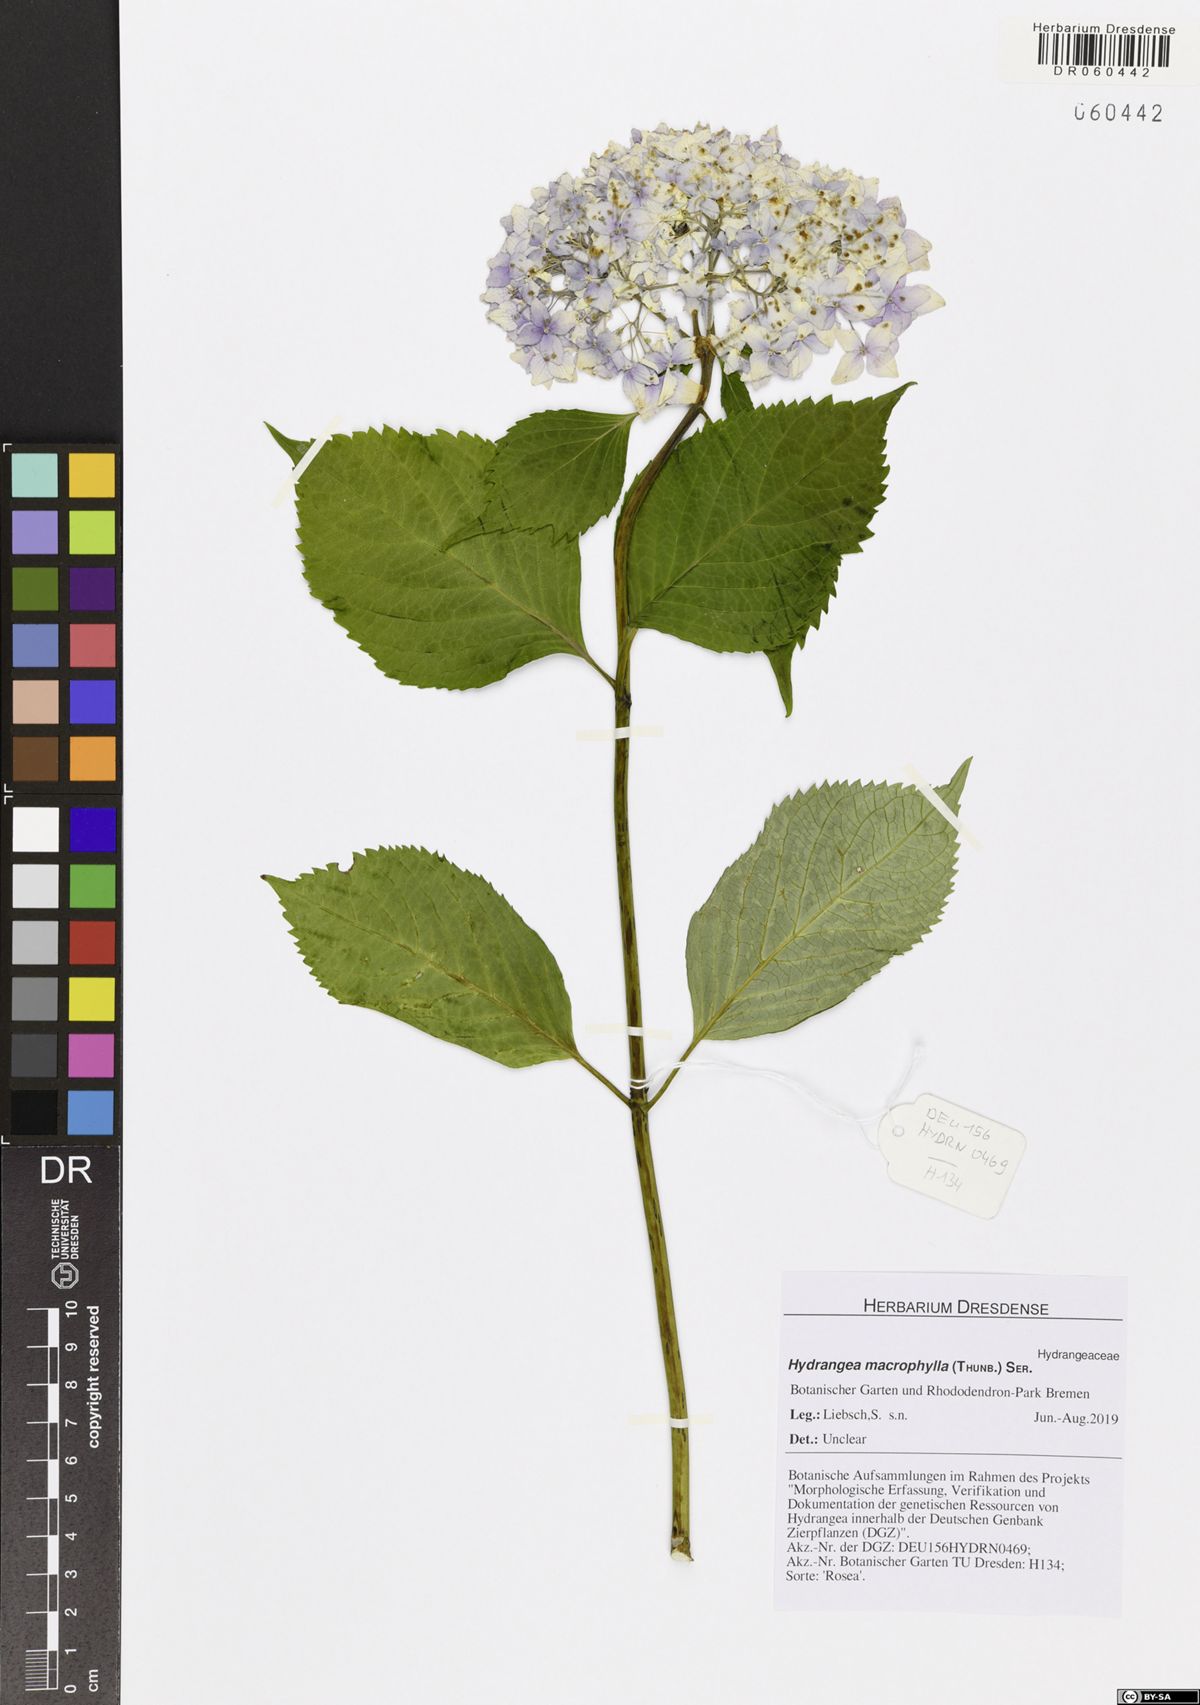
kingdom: Plantae
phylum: Tracheophyta
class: Magnoliopsida
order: Cornales
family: Hydrangeaceae
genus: Hydrangea
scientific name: Hydrangea macrophylla
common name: Hydrangea
